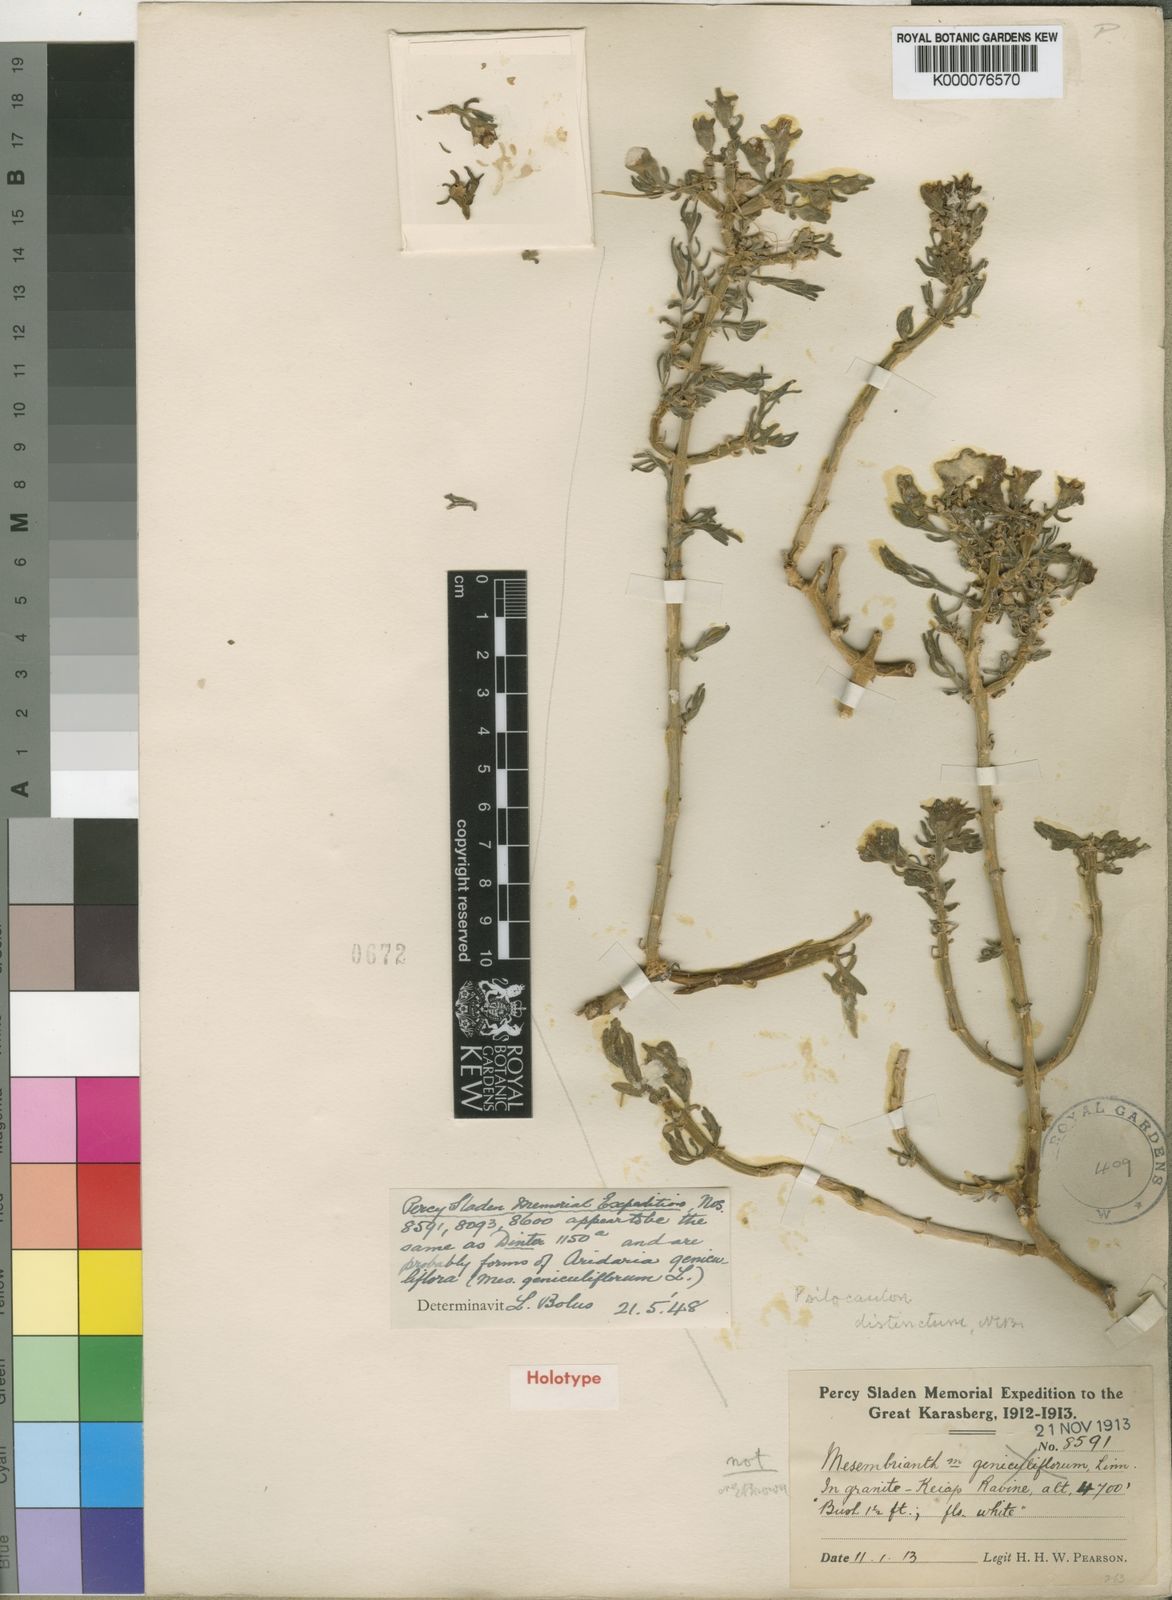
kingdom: Plantae
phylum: Tracheophyta
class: Magnoliopsida
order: Caryophyllales
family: Aizoaceae
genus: Mesembryanthemum
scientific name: Mesembryanthemum geniculiflorum
